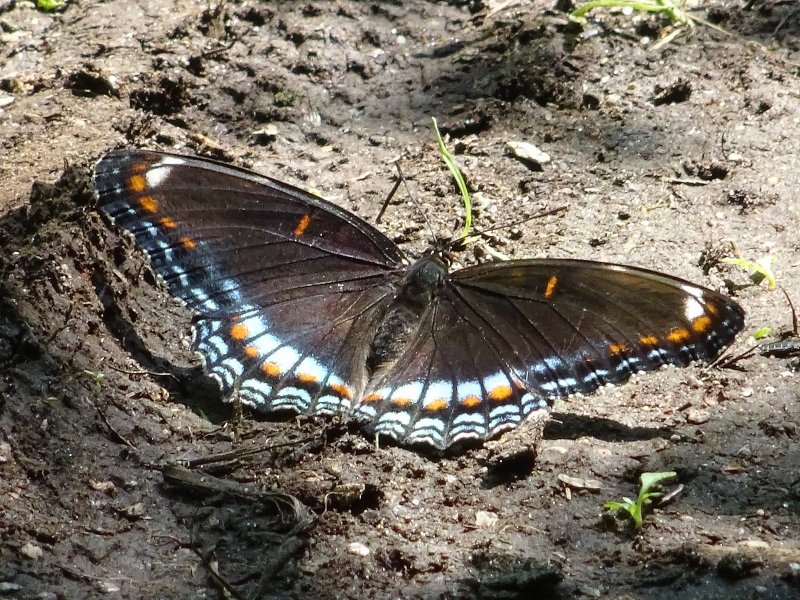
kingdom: Animalia
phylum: Arthropoda
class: Insecta
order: Lepidoptera
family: Nymphalidae
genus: Limenitis
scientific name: Limenitis astyanax
